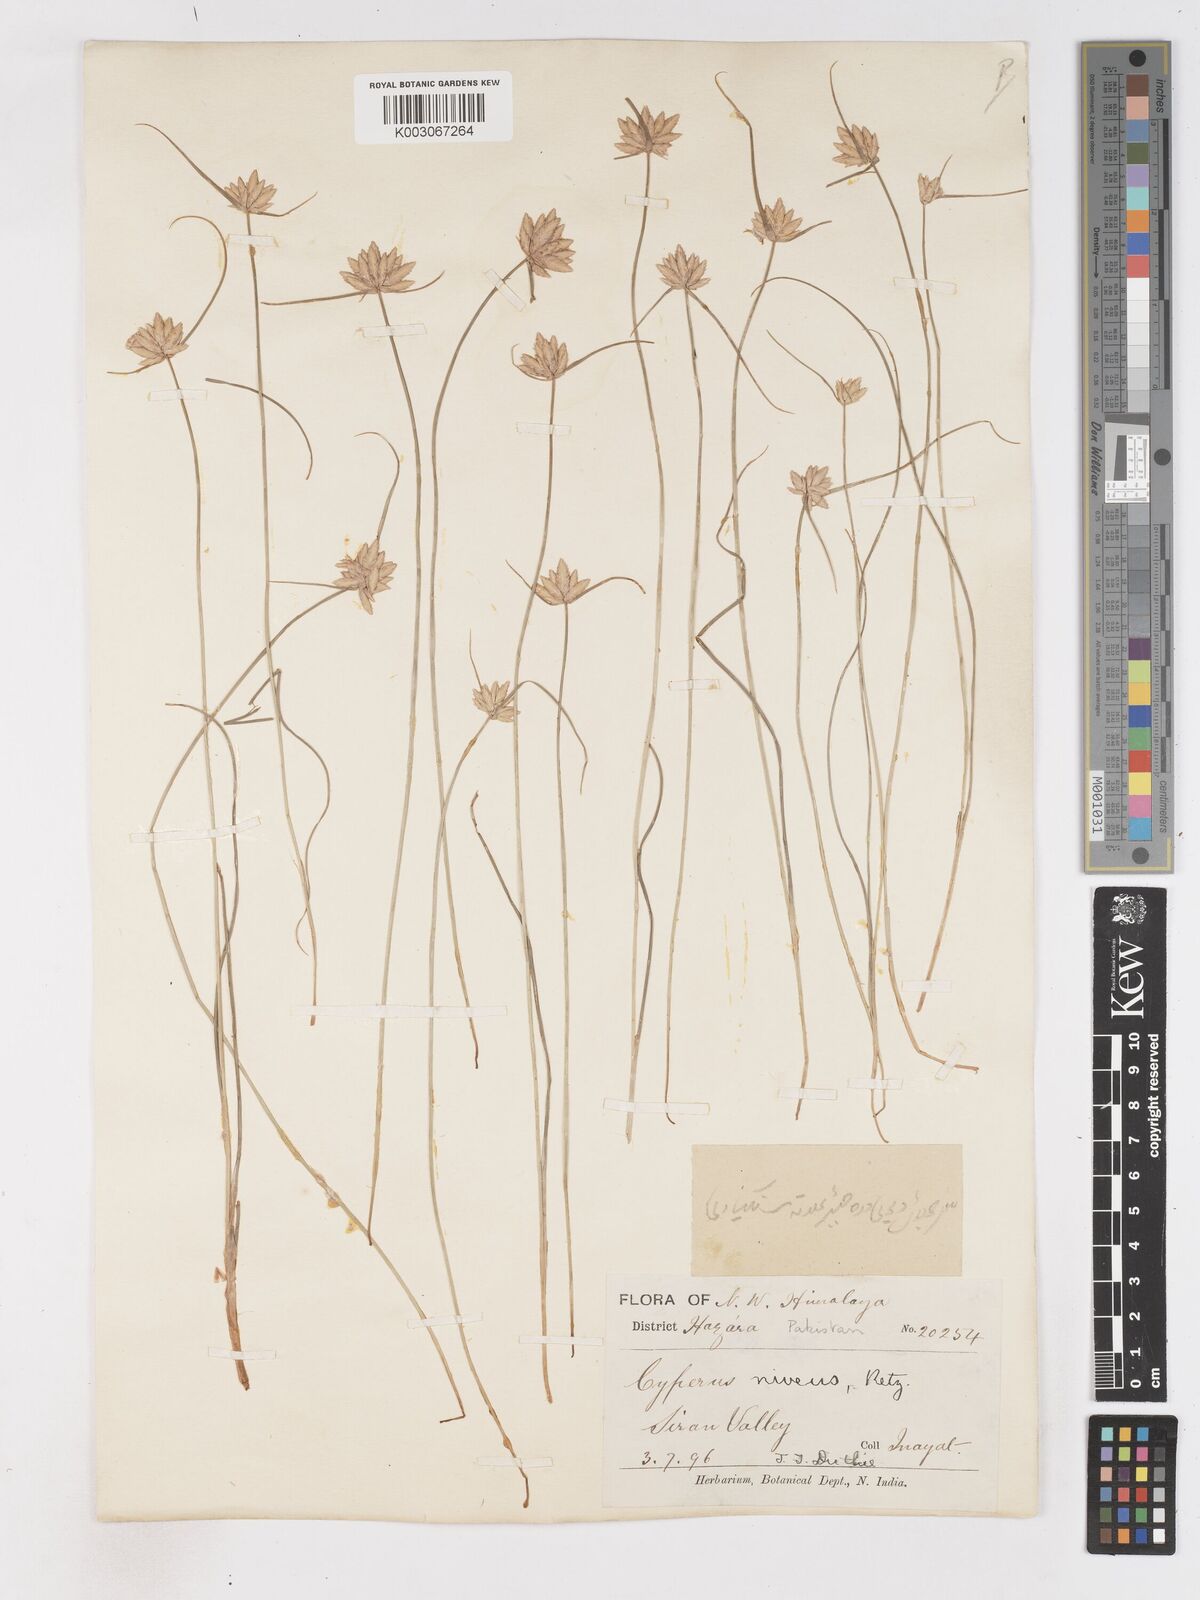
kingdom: Plantae
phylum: Tracheophyta
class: Liliopsida
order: Poales
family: Cyperaceae
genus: Cyperus
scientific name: Cyperus niveus
